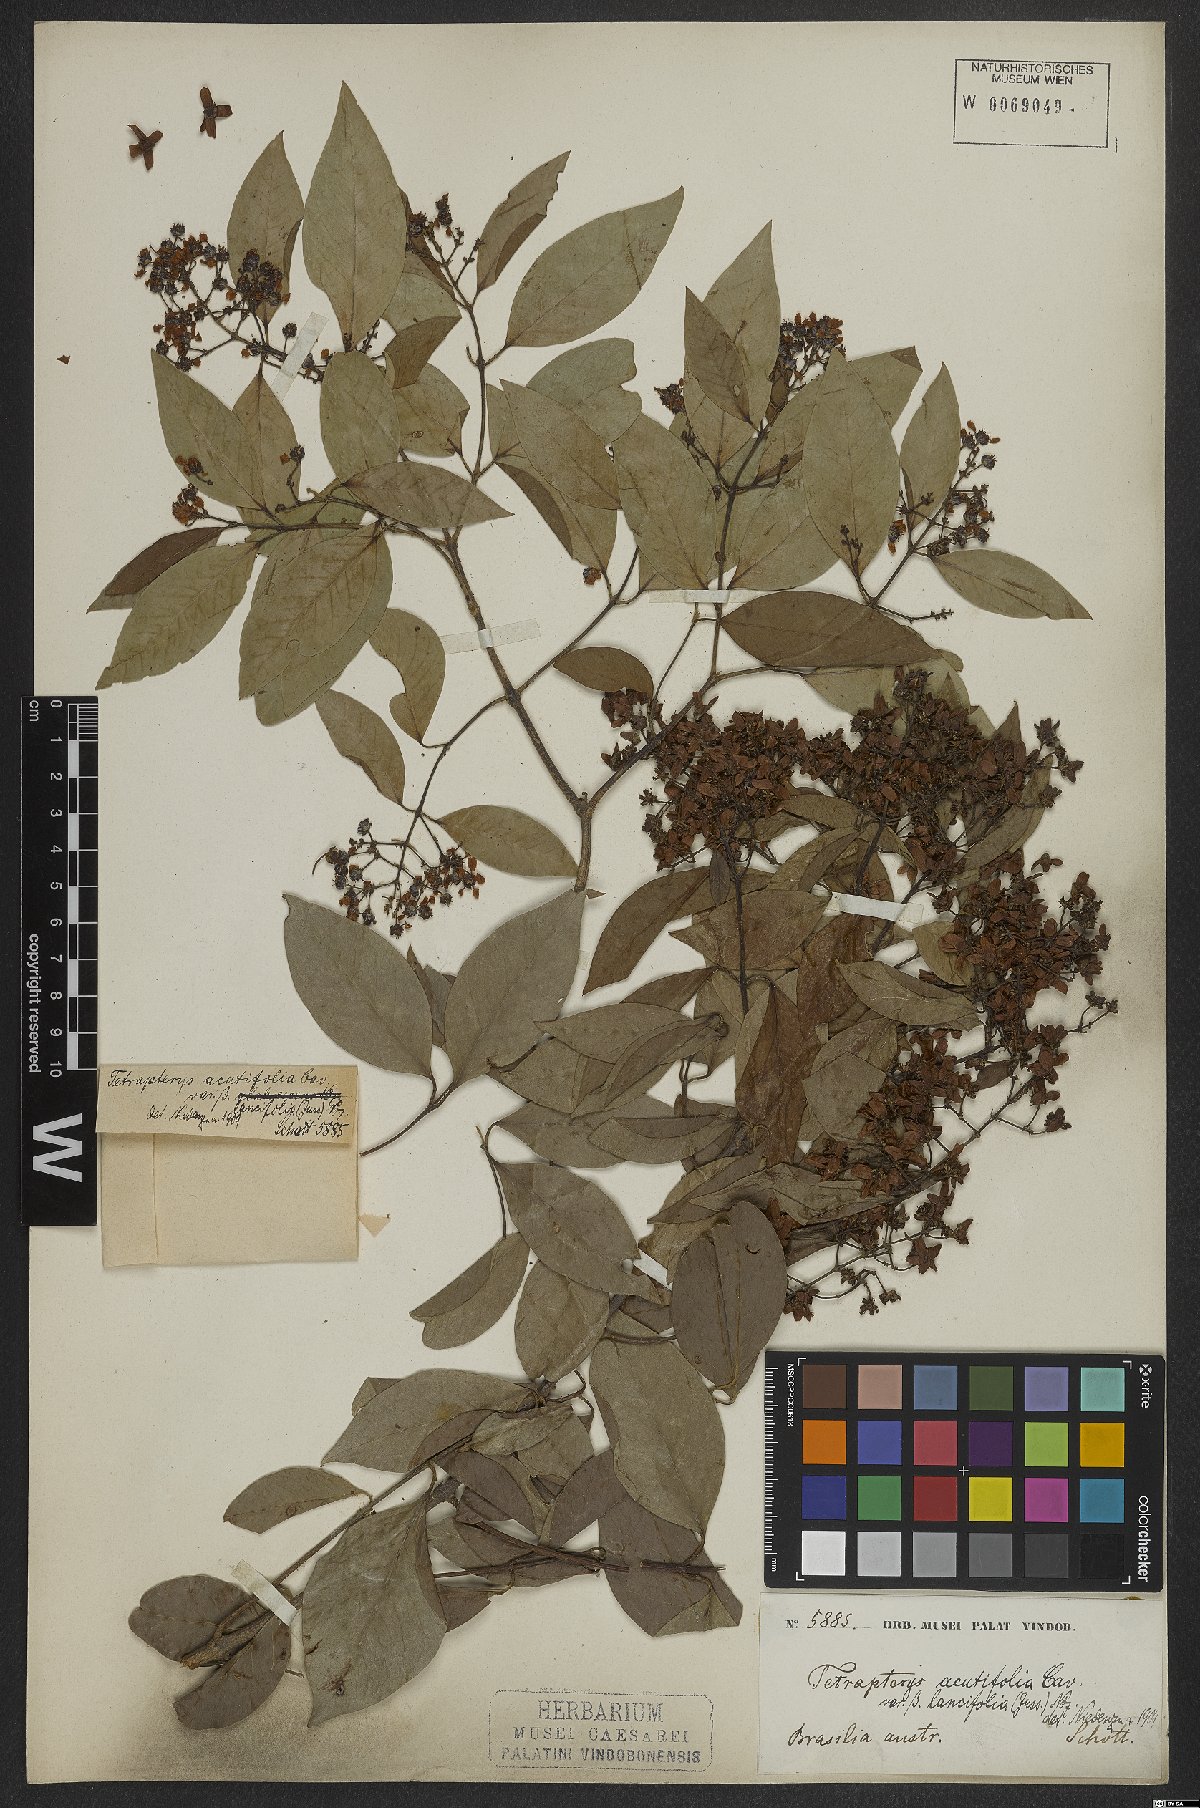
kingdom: Plantae
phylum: Tracheophyta
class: Magnoliopsida
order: Malpighiales
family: Malpighiaceae
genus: Niedenzuella
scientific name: Niedenzuella acutifolia
